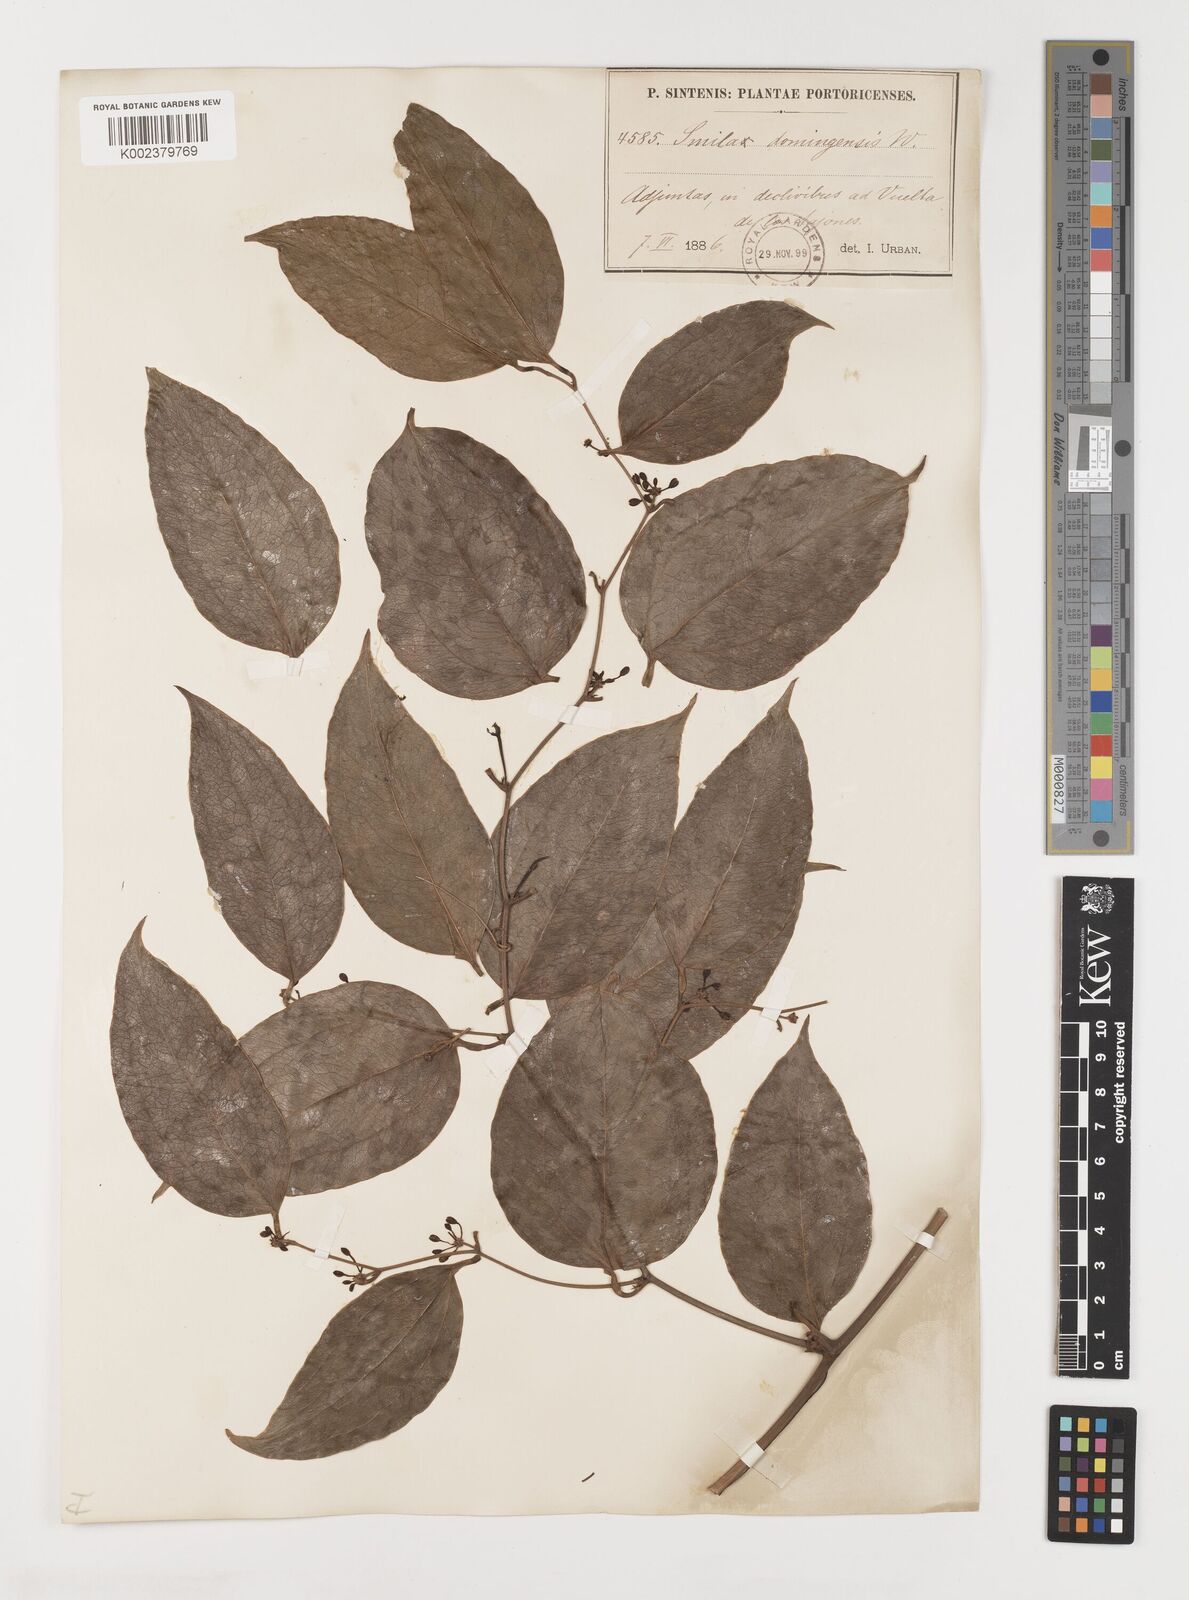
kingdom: Plantae
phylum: Tracheophyta
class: Liliopsida
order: Liliales
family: Smilacaceae
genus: Smilax
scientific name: Smilax domingensis
